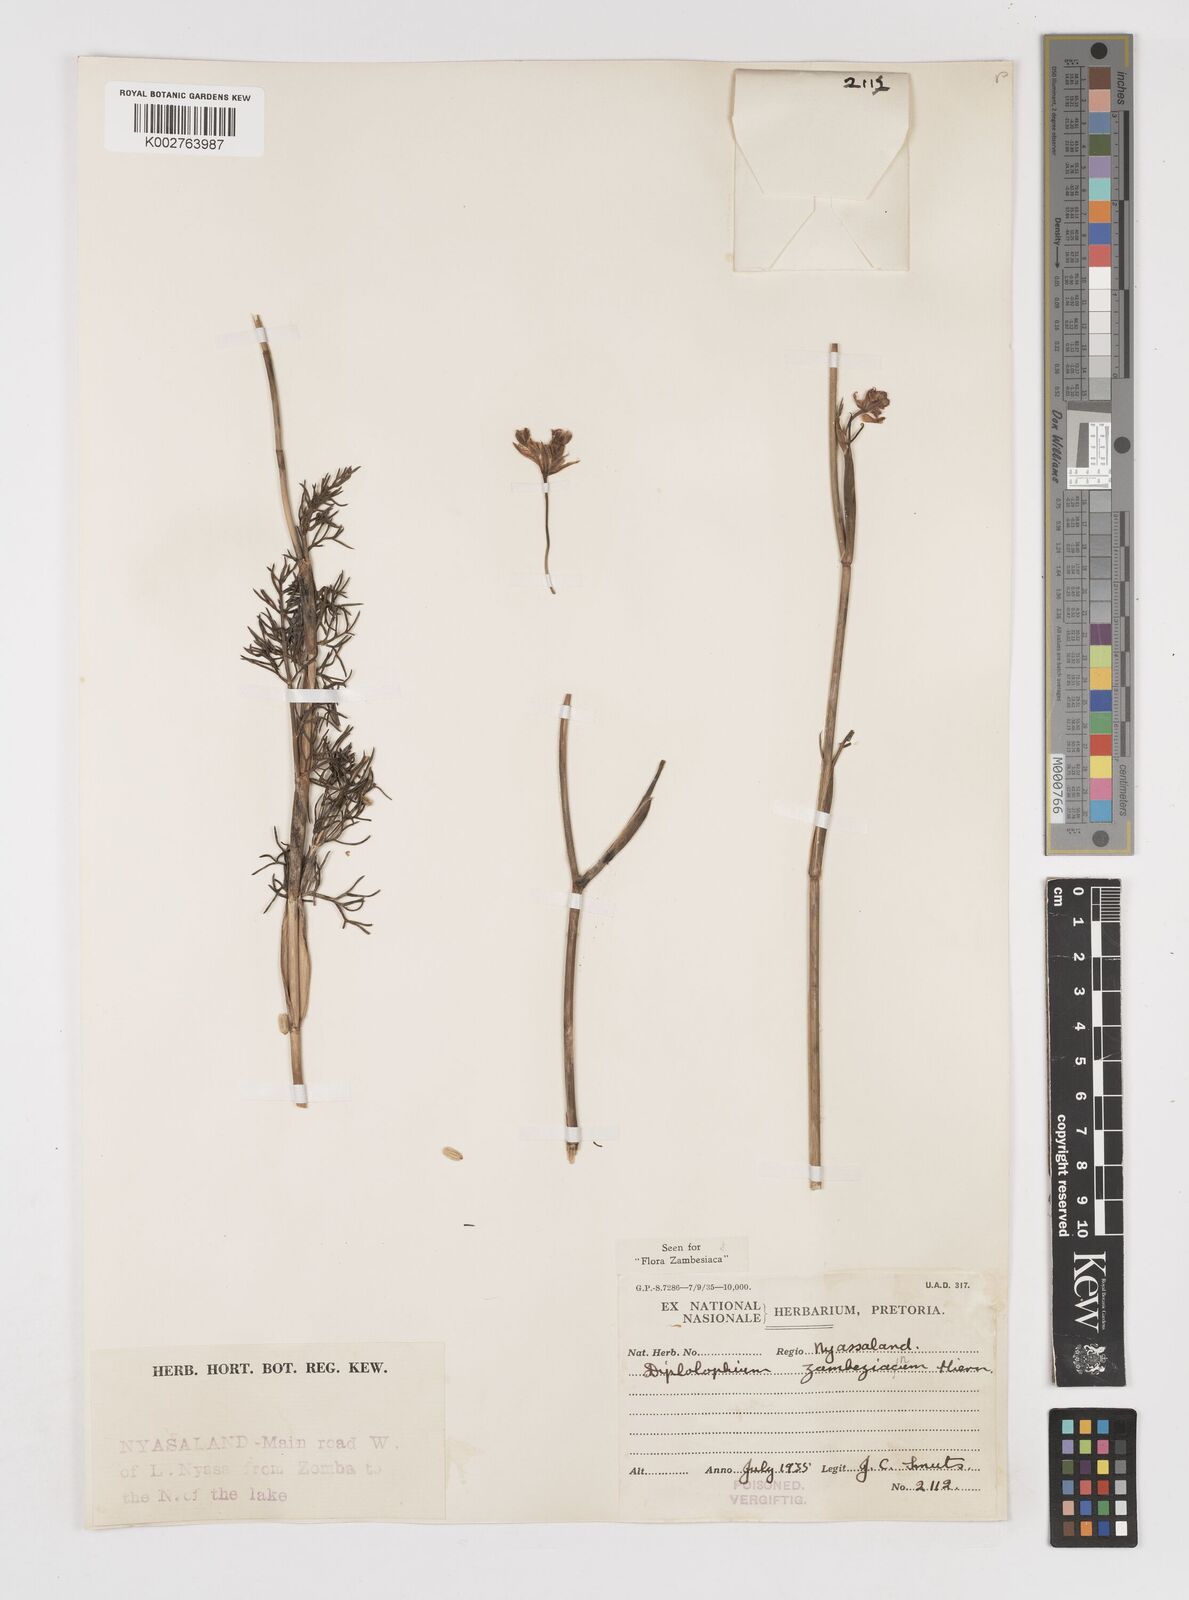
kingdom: Plantae
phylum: Tracheophyta
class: Magnoliopsida
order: Apiales
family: Apiaceae
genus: Diplolophium
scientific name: Diplolophium zambesianum
